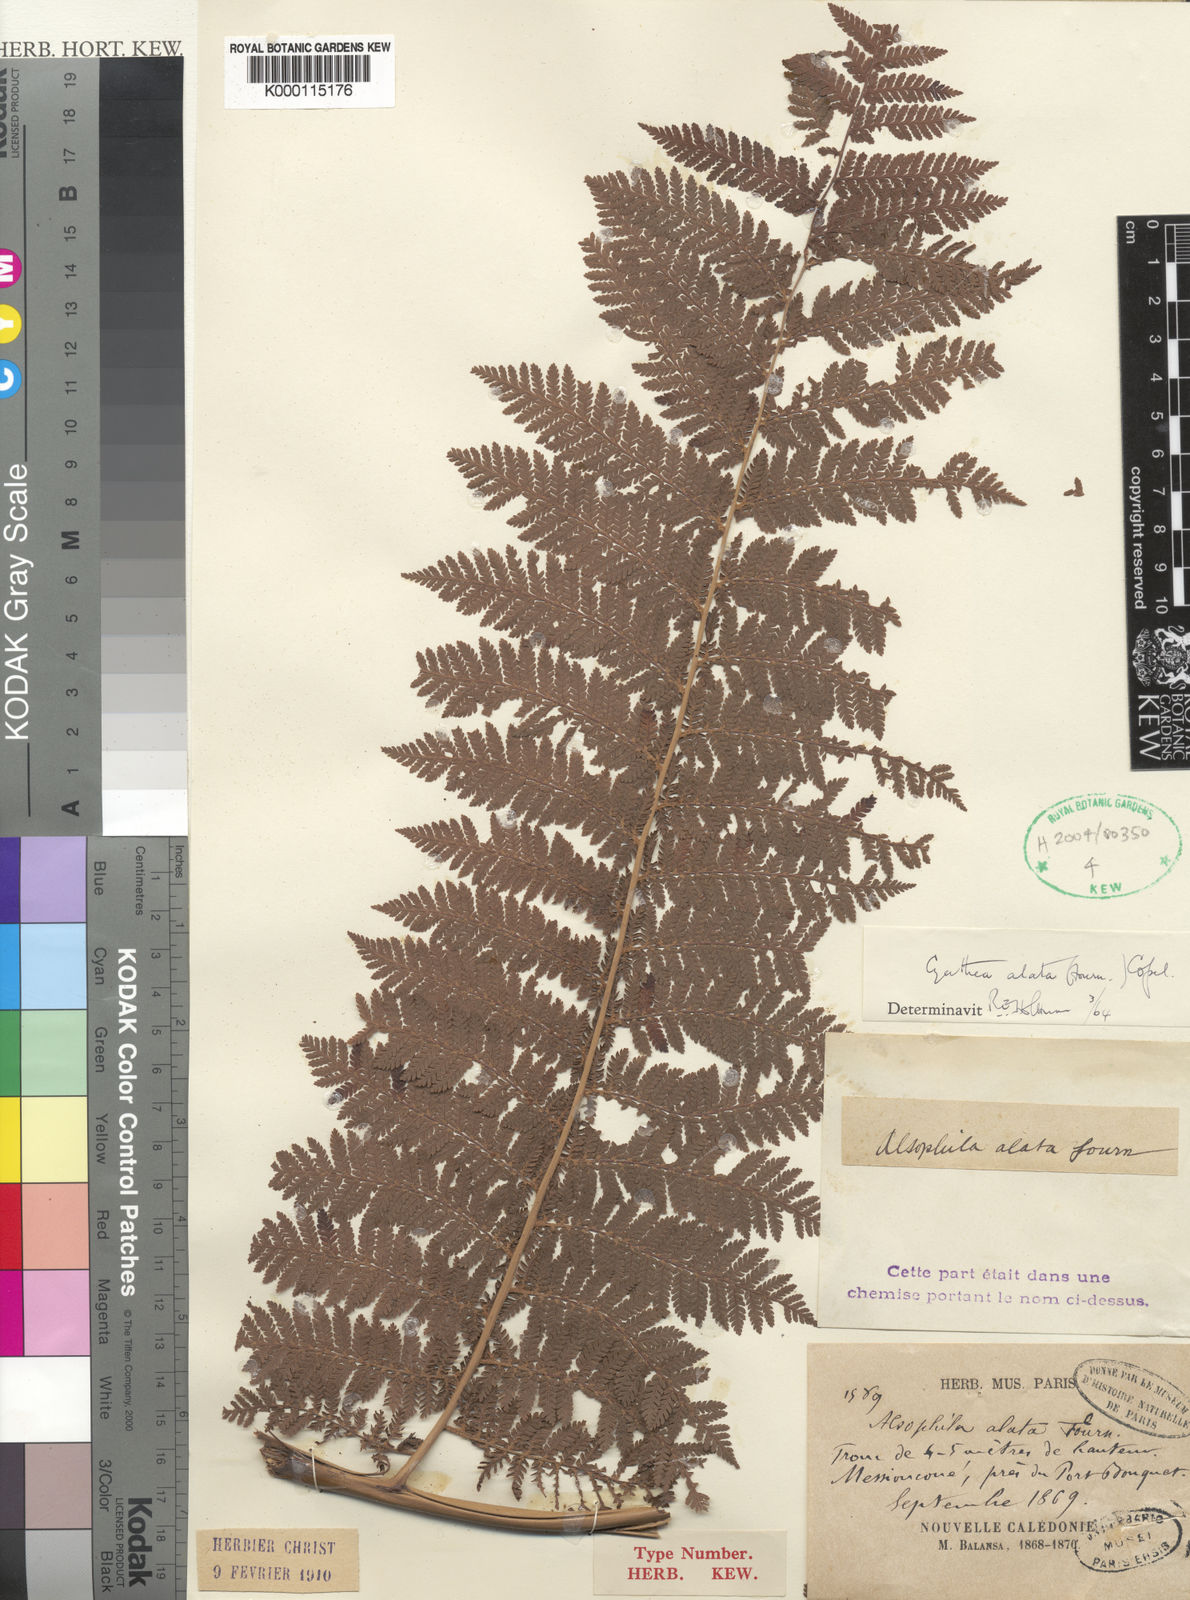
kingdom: Plantae
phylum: Tracheophyta
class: Polypodiopsida
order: Cyatheales
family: Cyatheaceae
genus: Cyathea
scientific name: Cyathea alata
